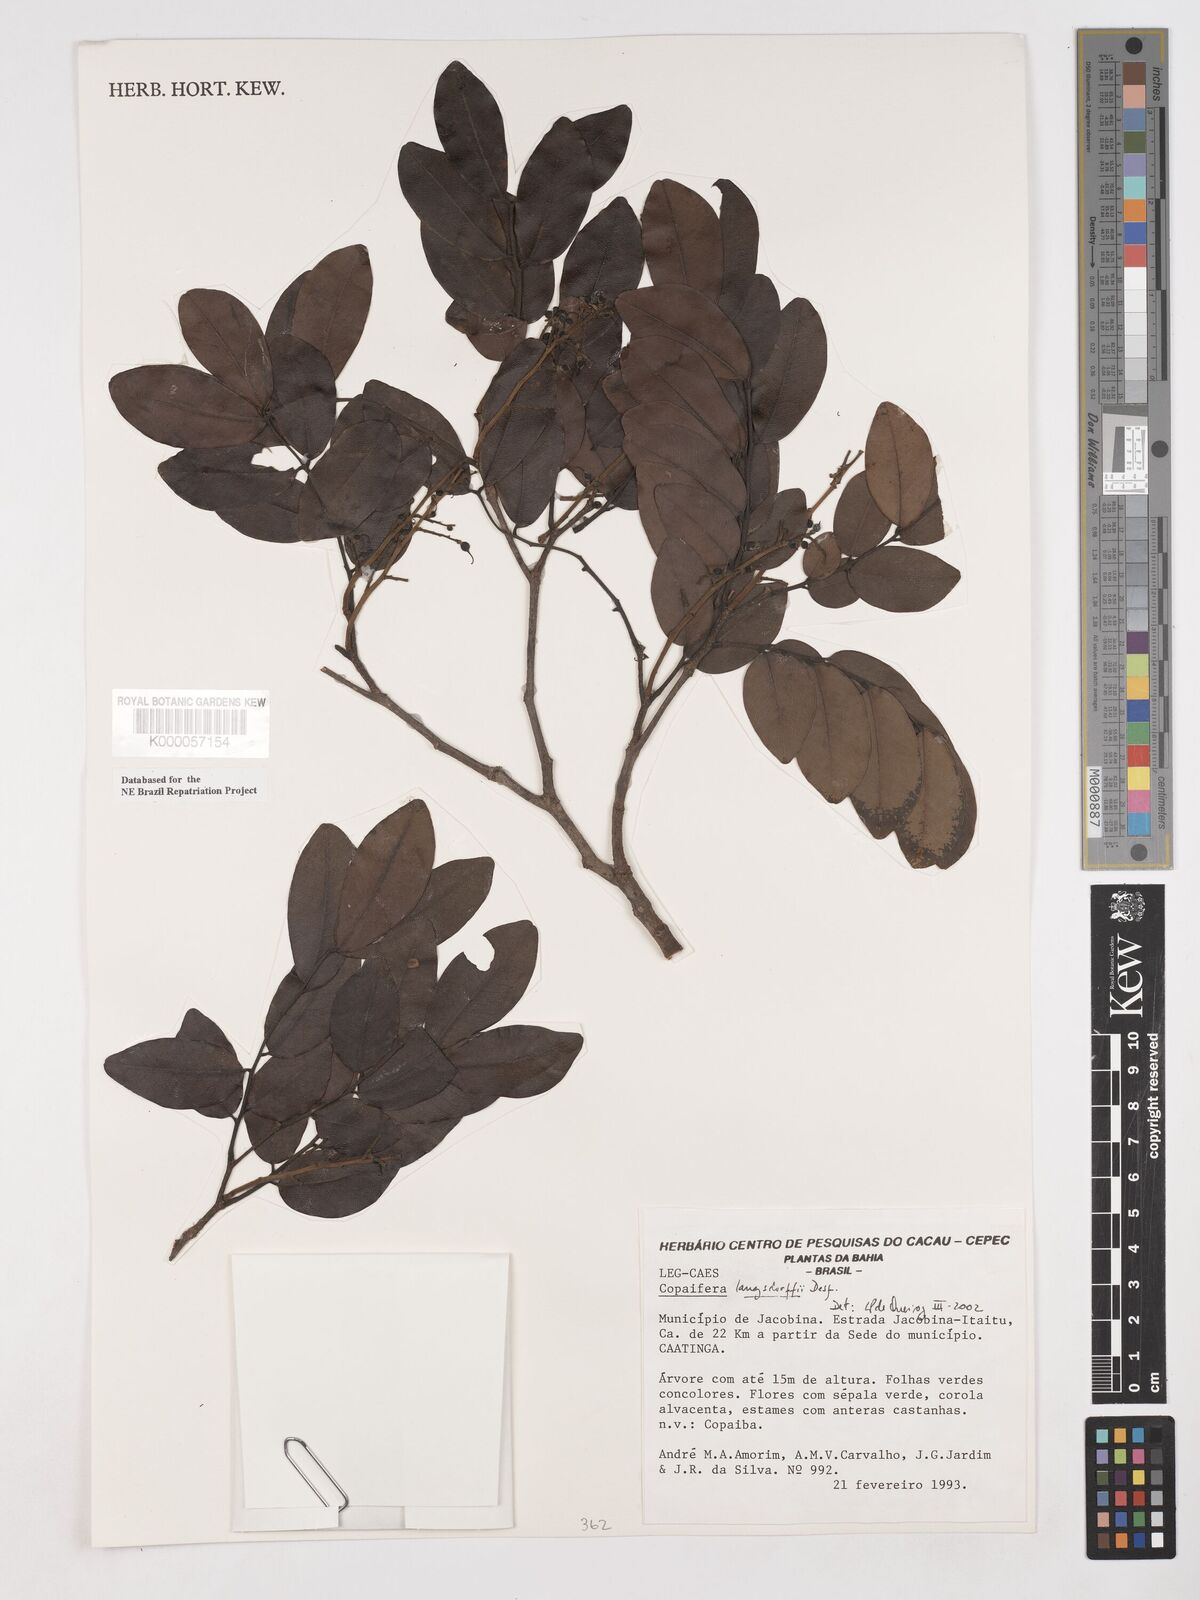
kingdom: Plantae
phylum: Tracheophyta
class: Magnoliopsida
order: Fabales
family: Fabaceae
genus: Copaifera
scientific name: Copaifera langsdorffii
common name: Brazilian diesel tree
